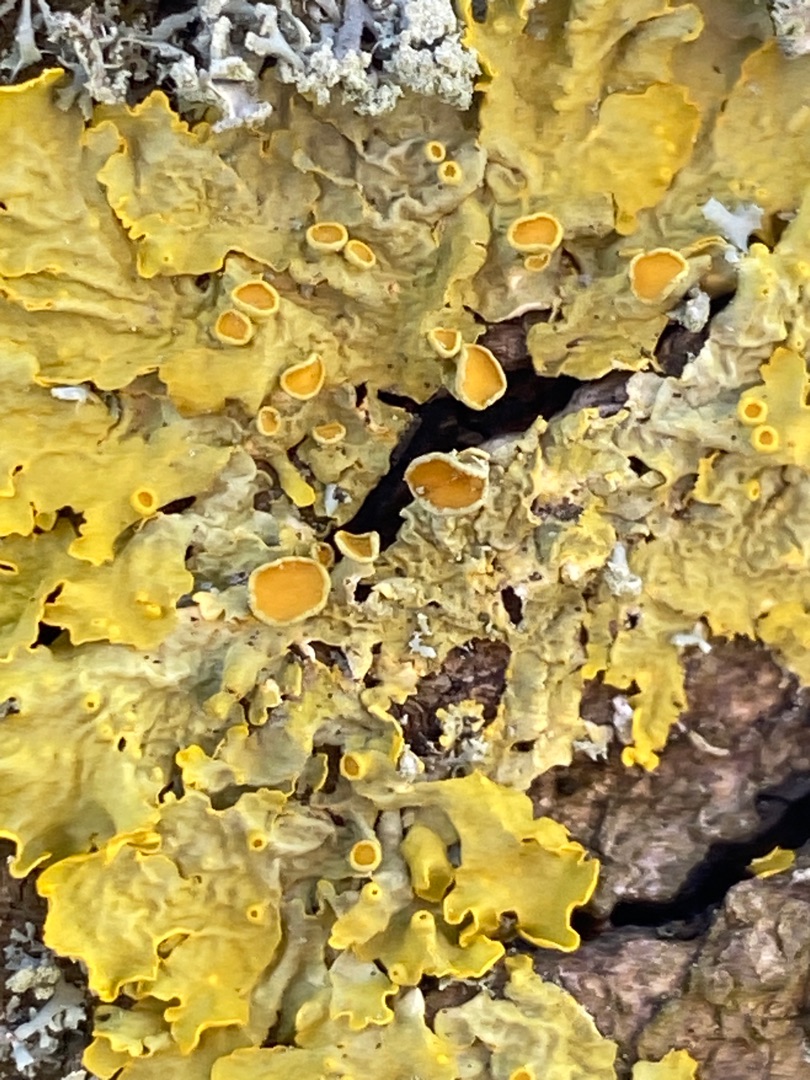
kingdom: Fungi
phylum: Ascomycota
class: Lecanoromycetes
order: Teloschistales
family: Teloschistaceae
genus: Xanthoria
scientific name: Xanthoria parietina
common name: Almindelig væggelav
